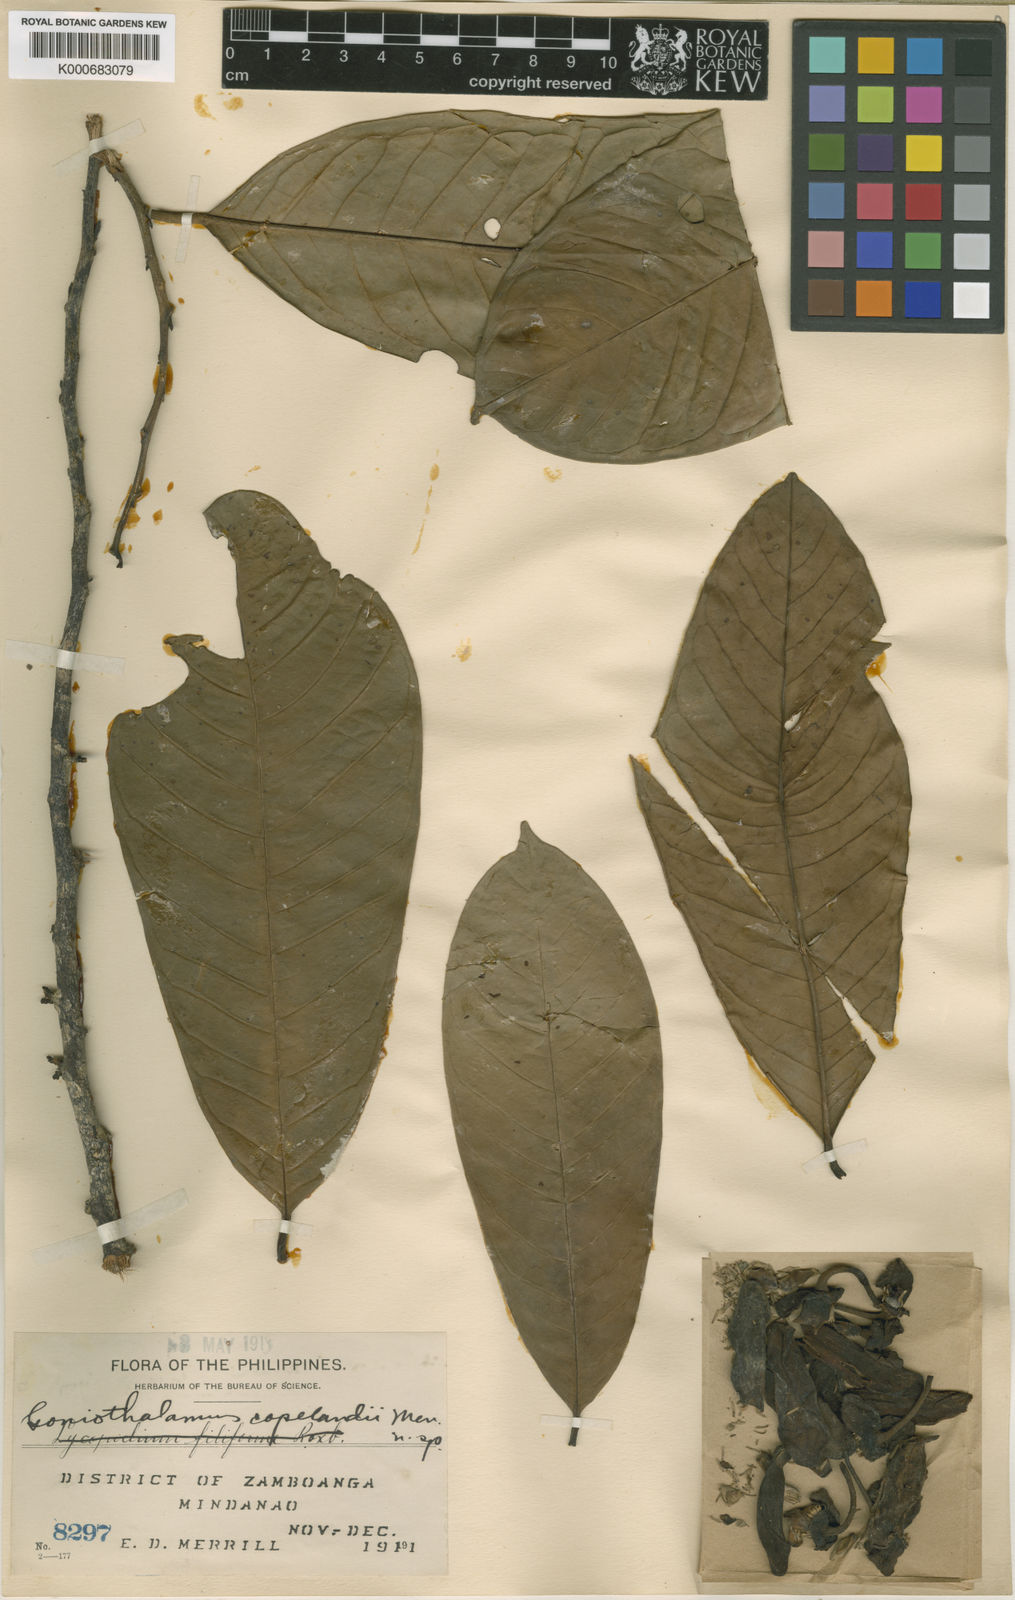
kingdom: Plantae
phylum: Tracheophyta
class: Magnoliopsida
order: Magnoliales
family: Annonaceae
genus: Goniothalamus
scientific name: Goniothalamus copelandii
